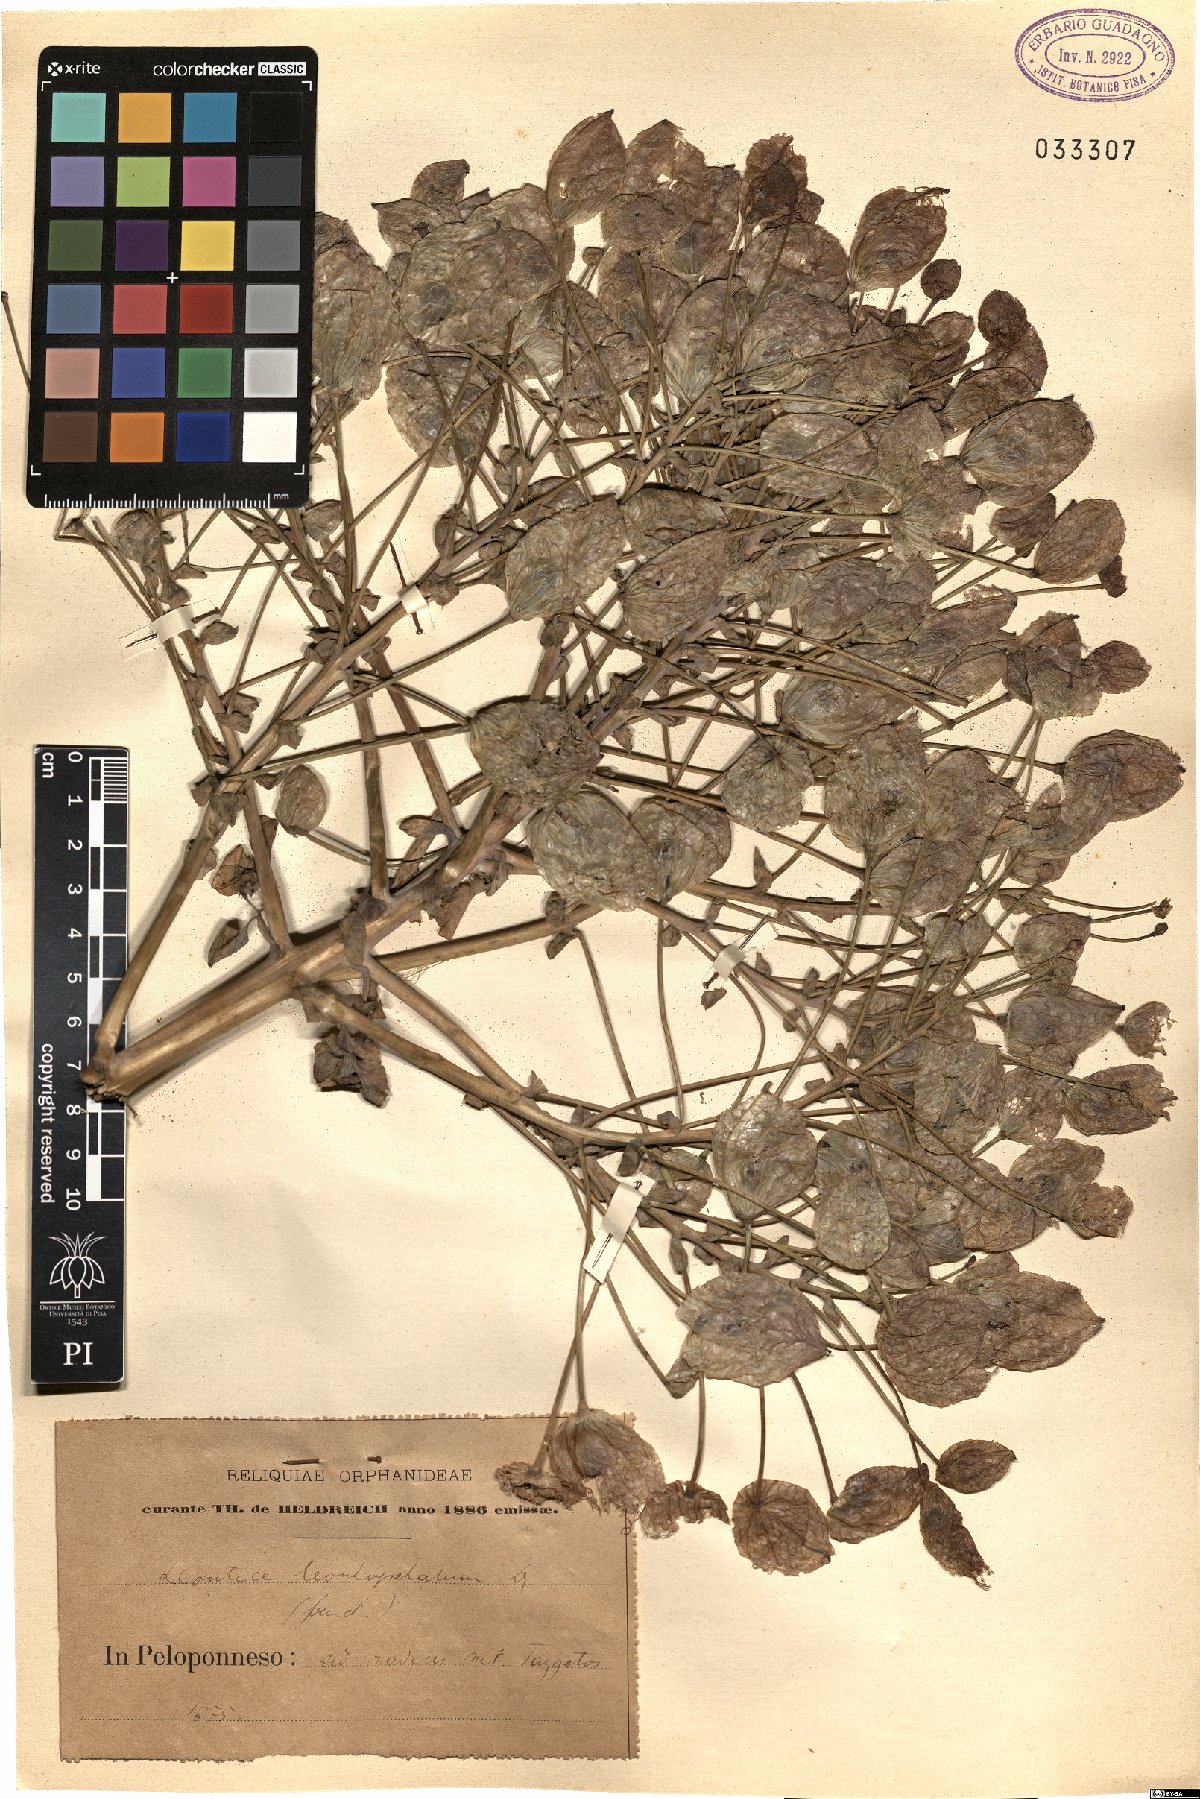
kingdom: Plantae
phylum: Tracheophyta
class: Magnoliopsida
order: Ranunculales
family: Berberidaceae
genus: Leontice
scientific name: Leontice leontopetalum
